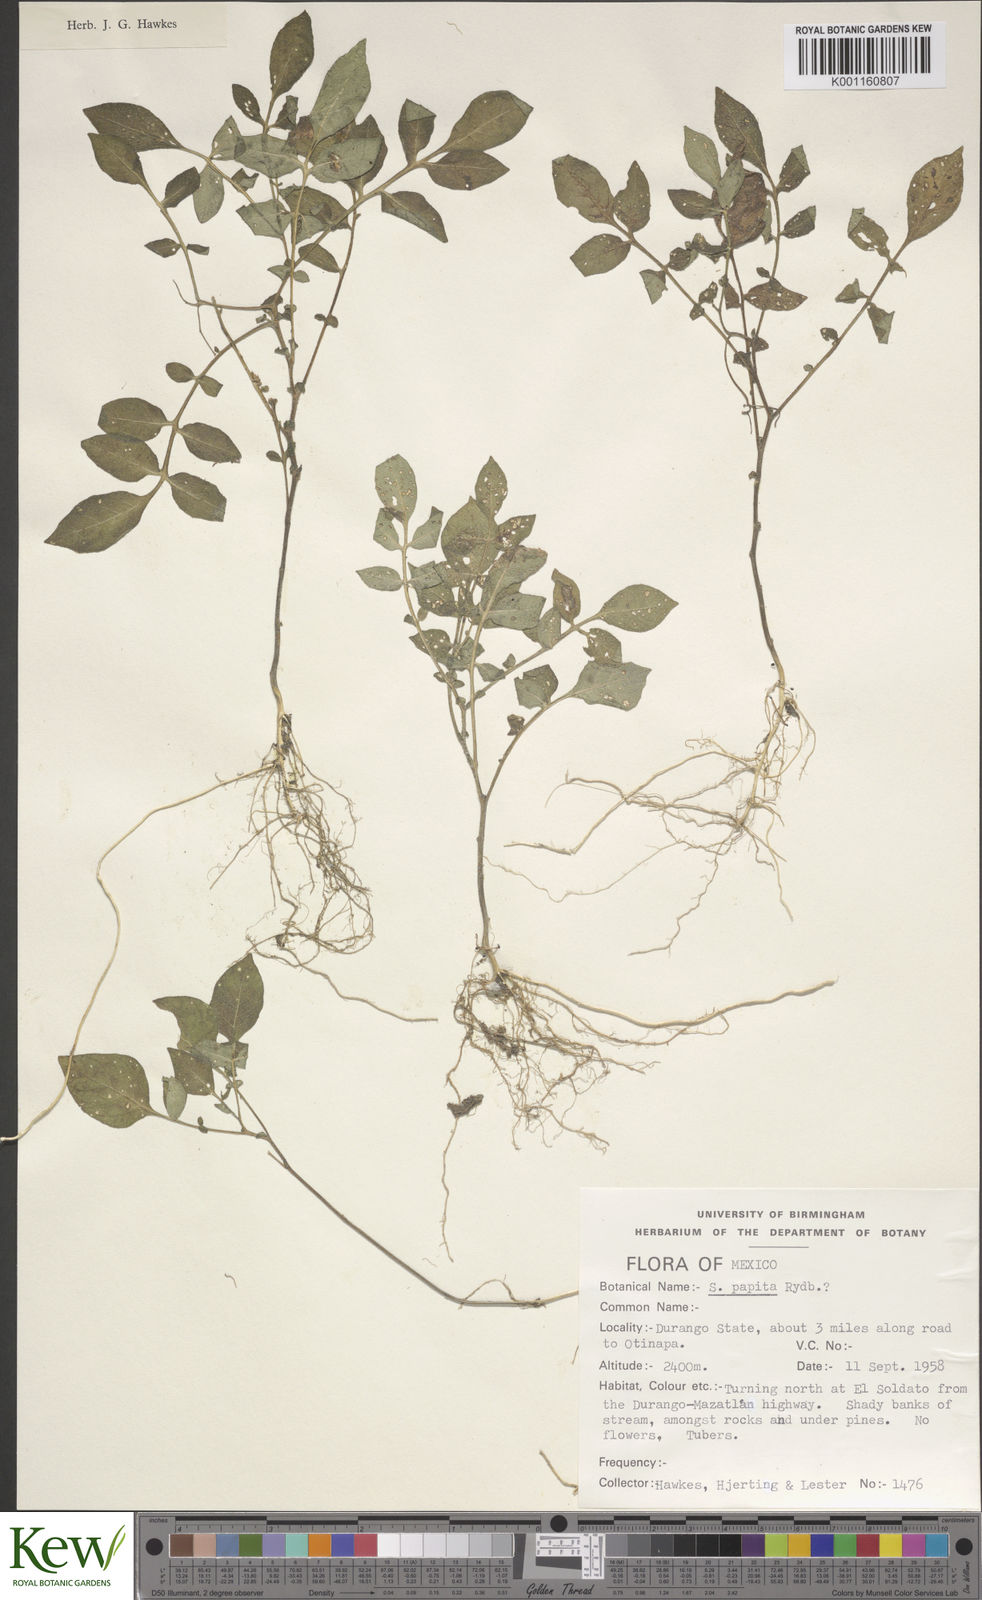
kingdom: Plantae
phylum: Tracheophyta
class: Magnoliopsida
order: Solanales
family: Solanaceae
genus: Solanum
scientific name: Solanum stoloniferum
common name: Fendler's nighshade
